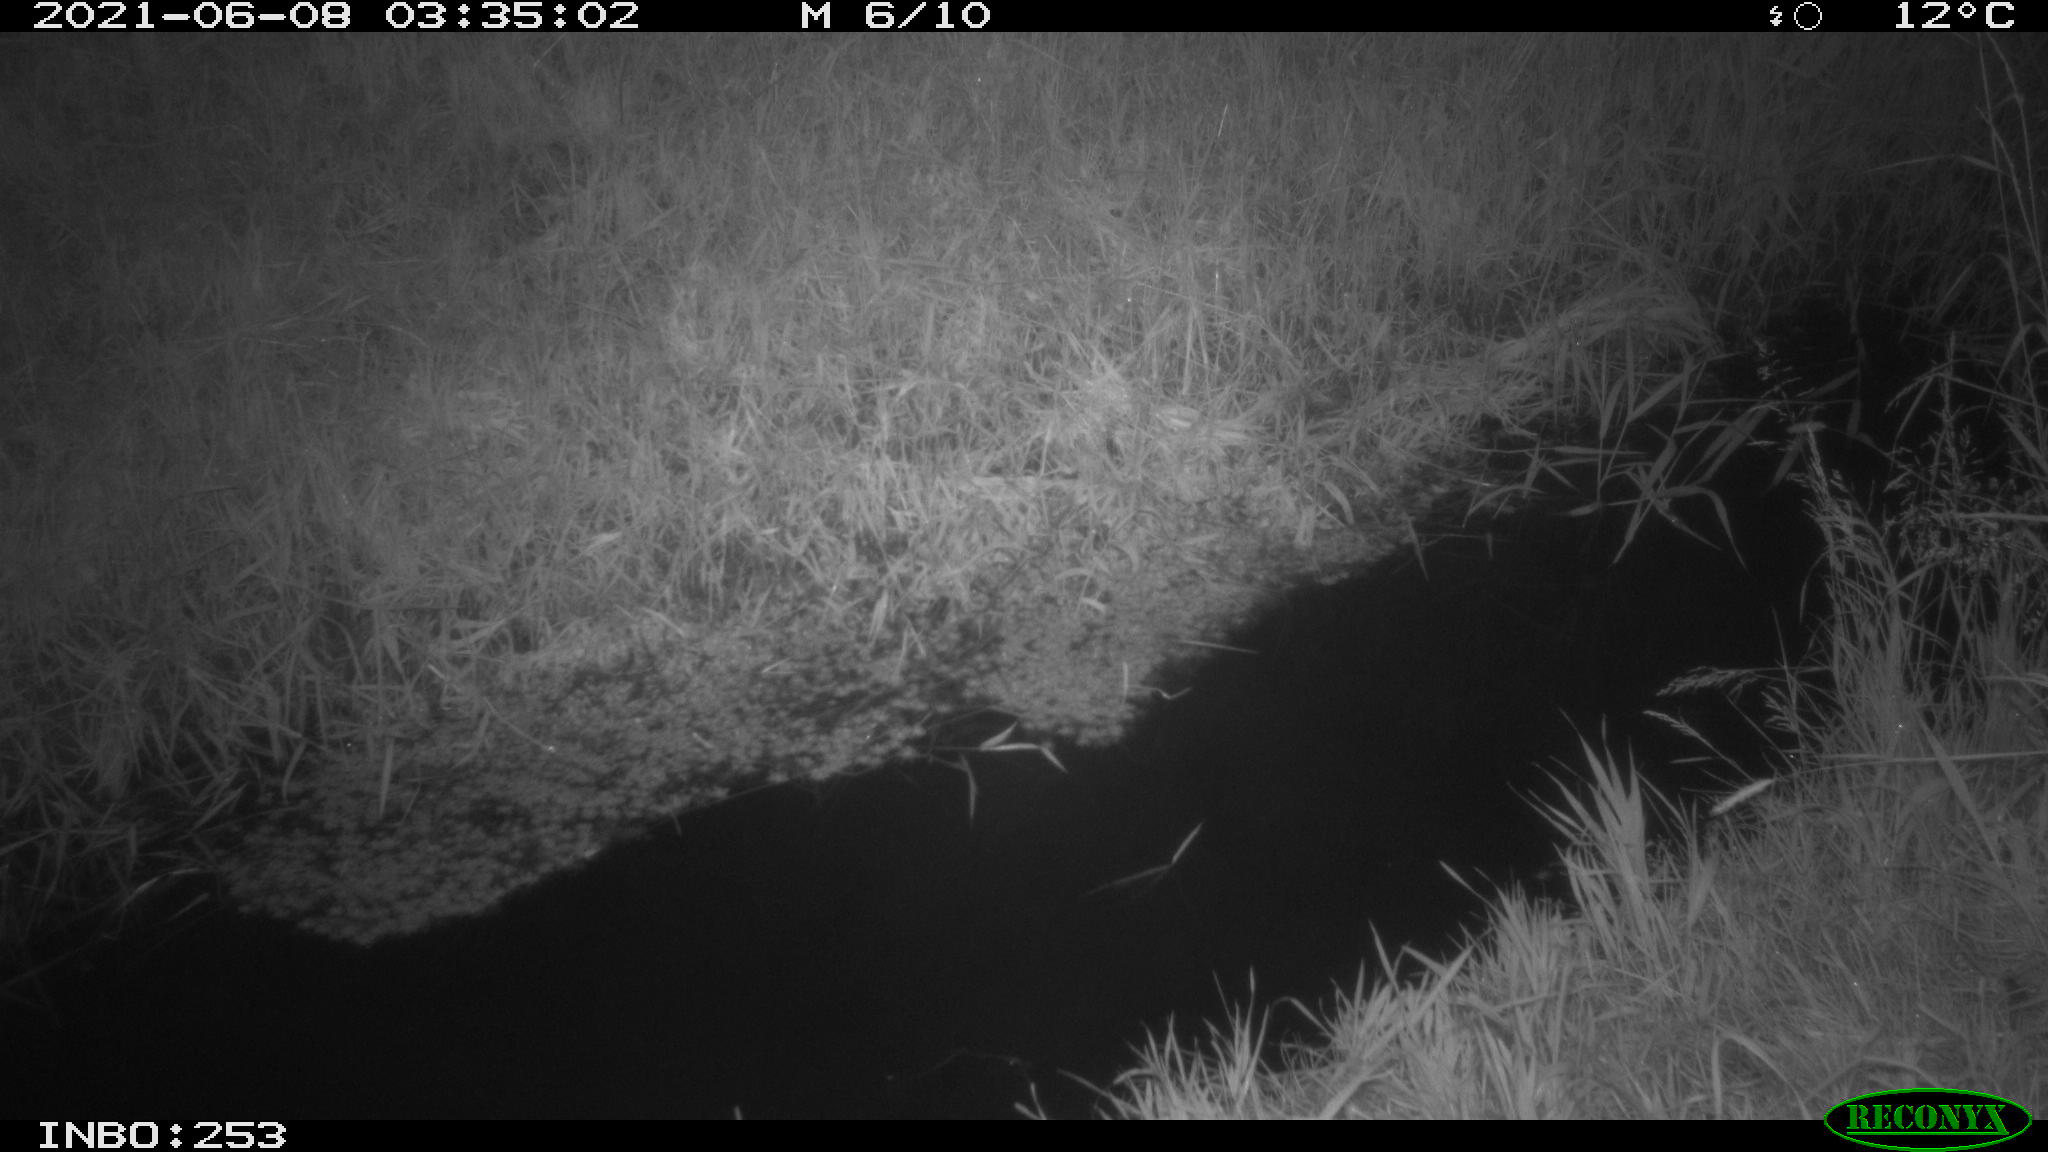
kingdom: Animalia
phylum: Chordata
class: Mammalia
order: Carnivora
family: Canidae
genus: Vulpes
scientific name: Vulpes vulpes
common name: Red fox
